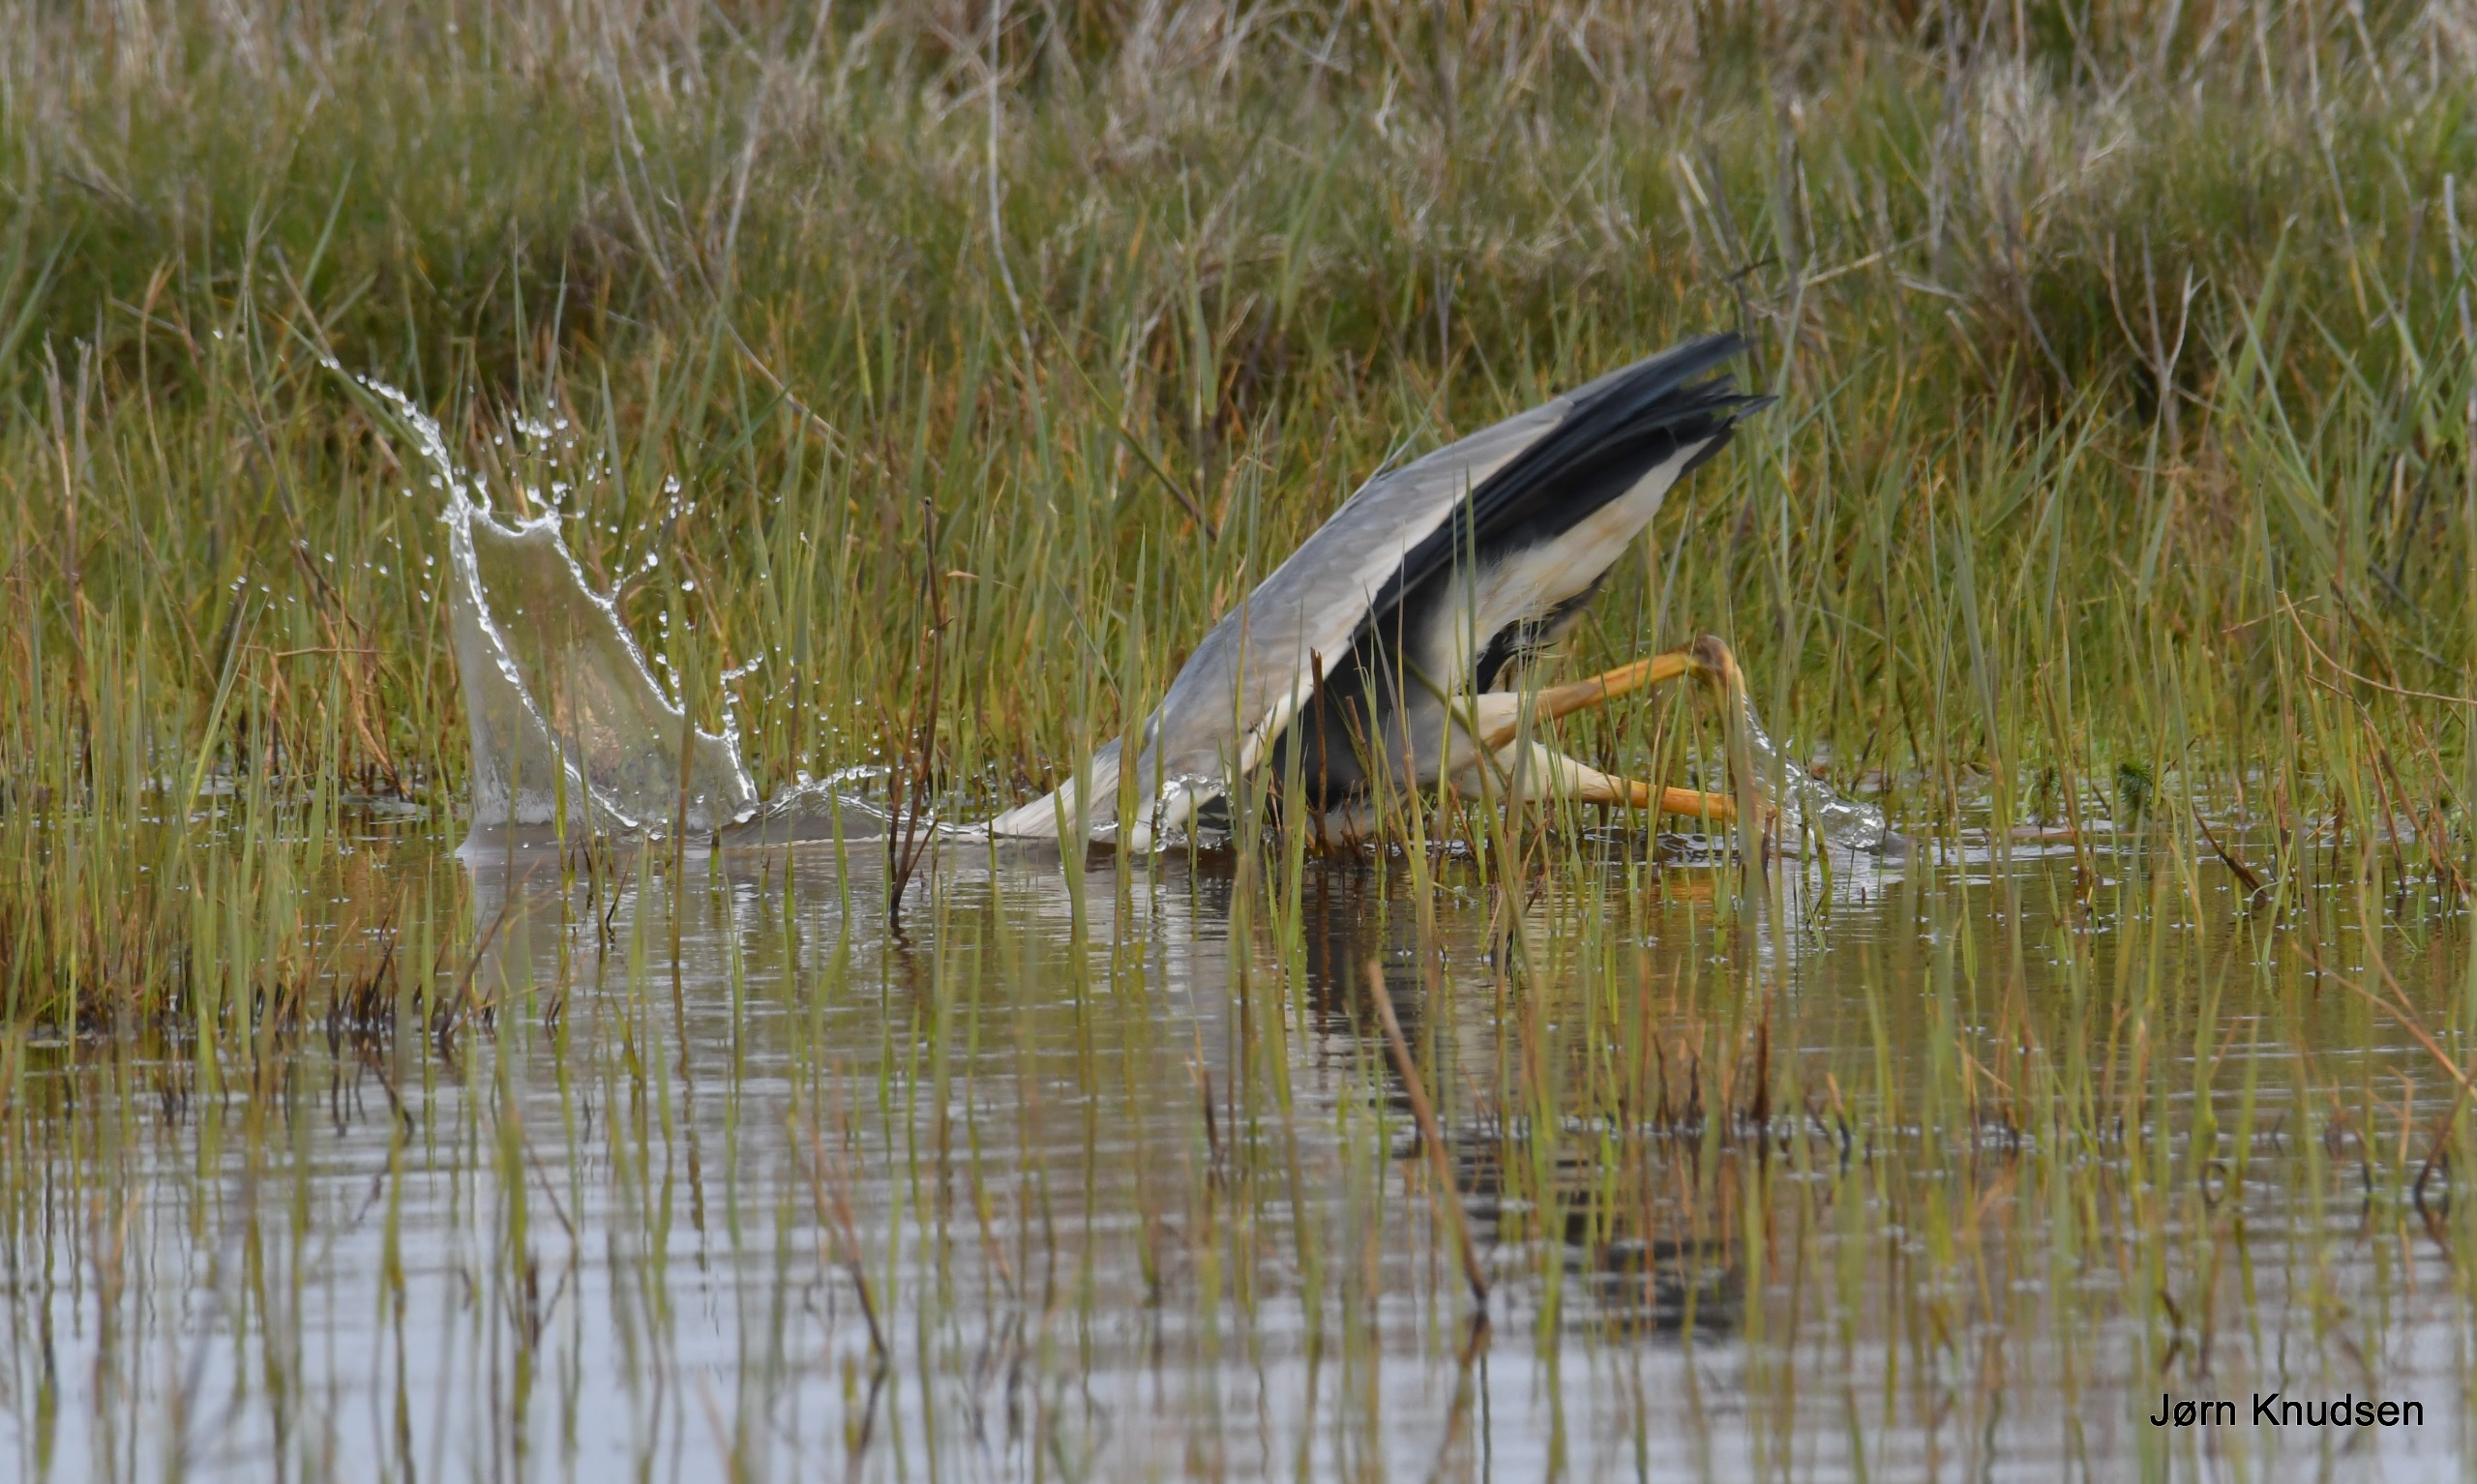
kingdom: Animalia
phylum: Chordata
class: Aves
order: Pelecaniformes
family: Ardeidae
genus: Ardea
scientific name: Ardea cinerea
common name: Fiskehejre
